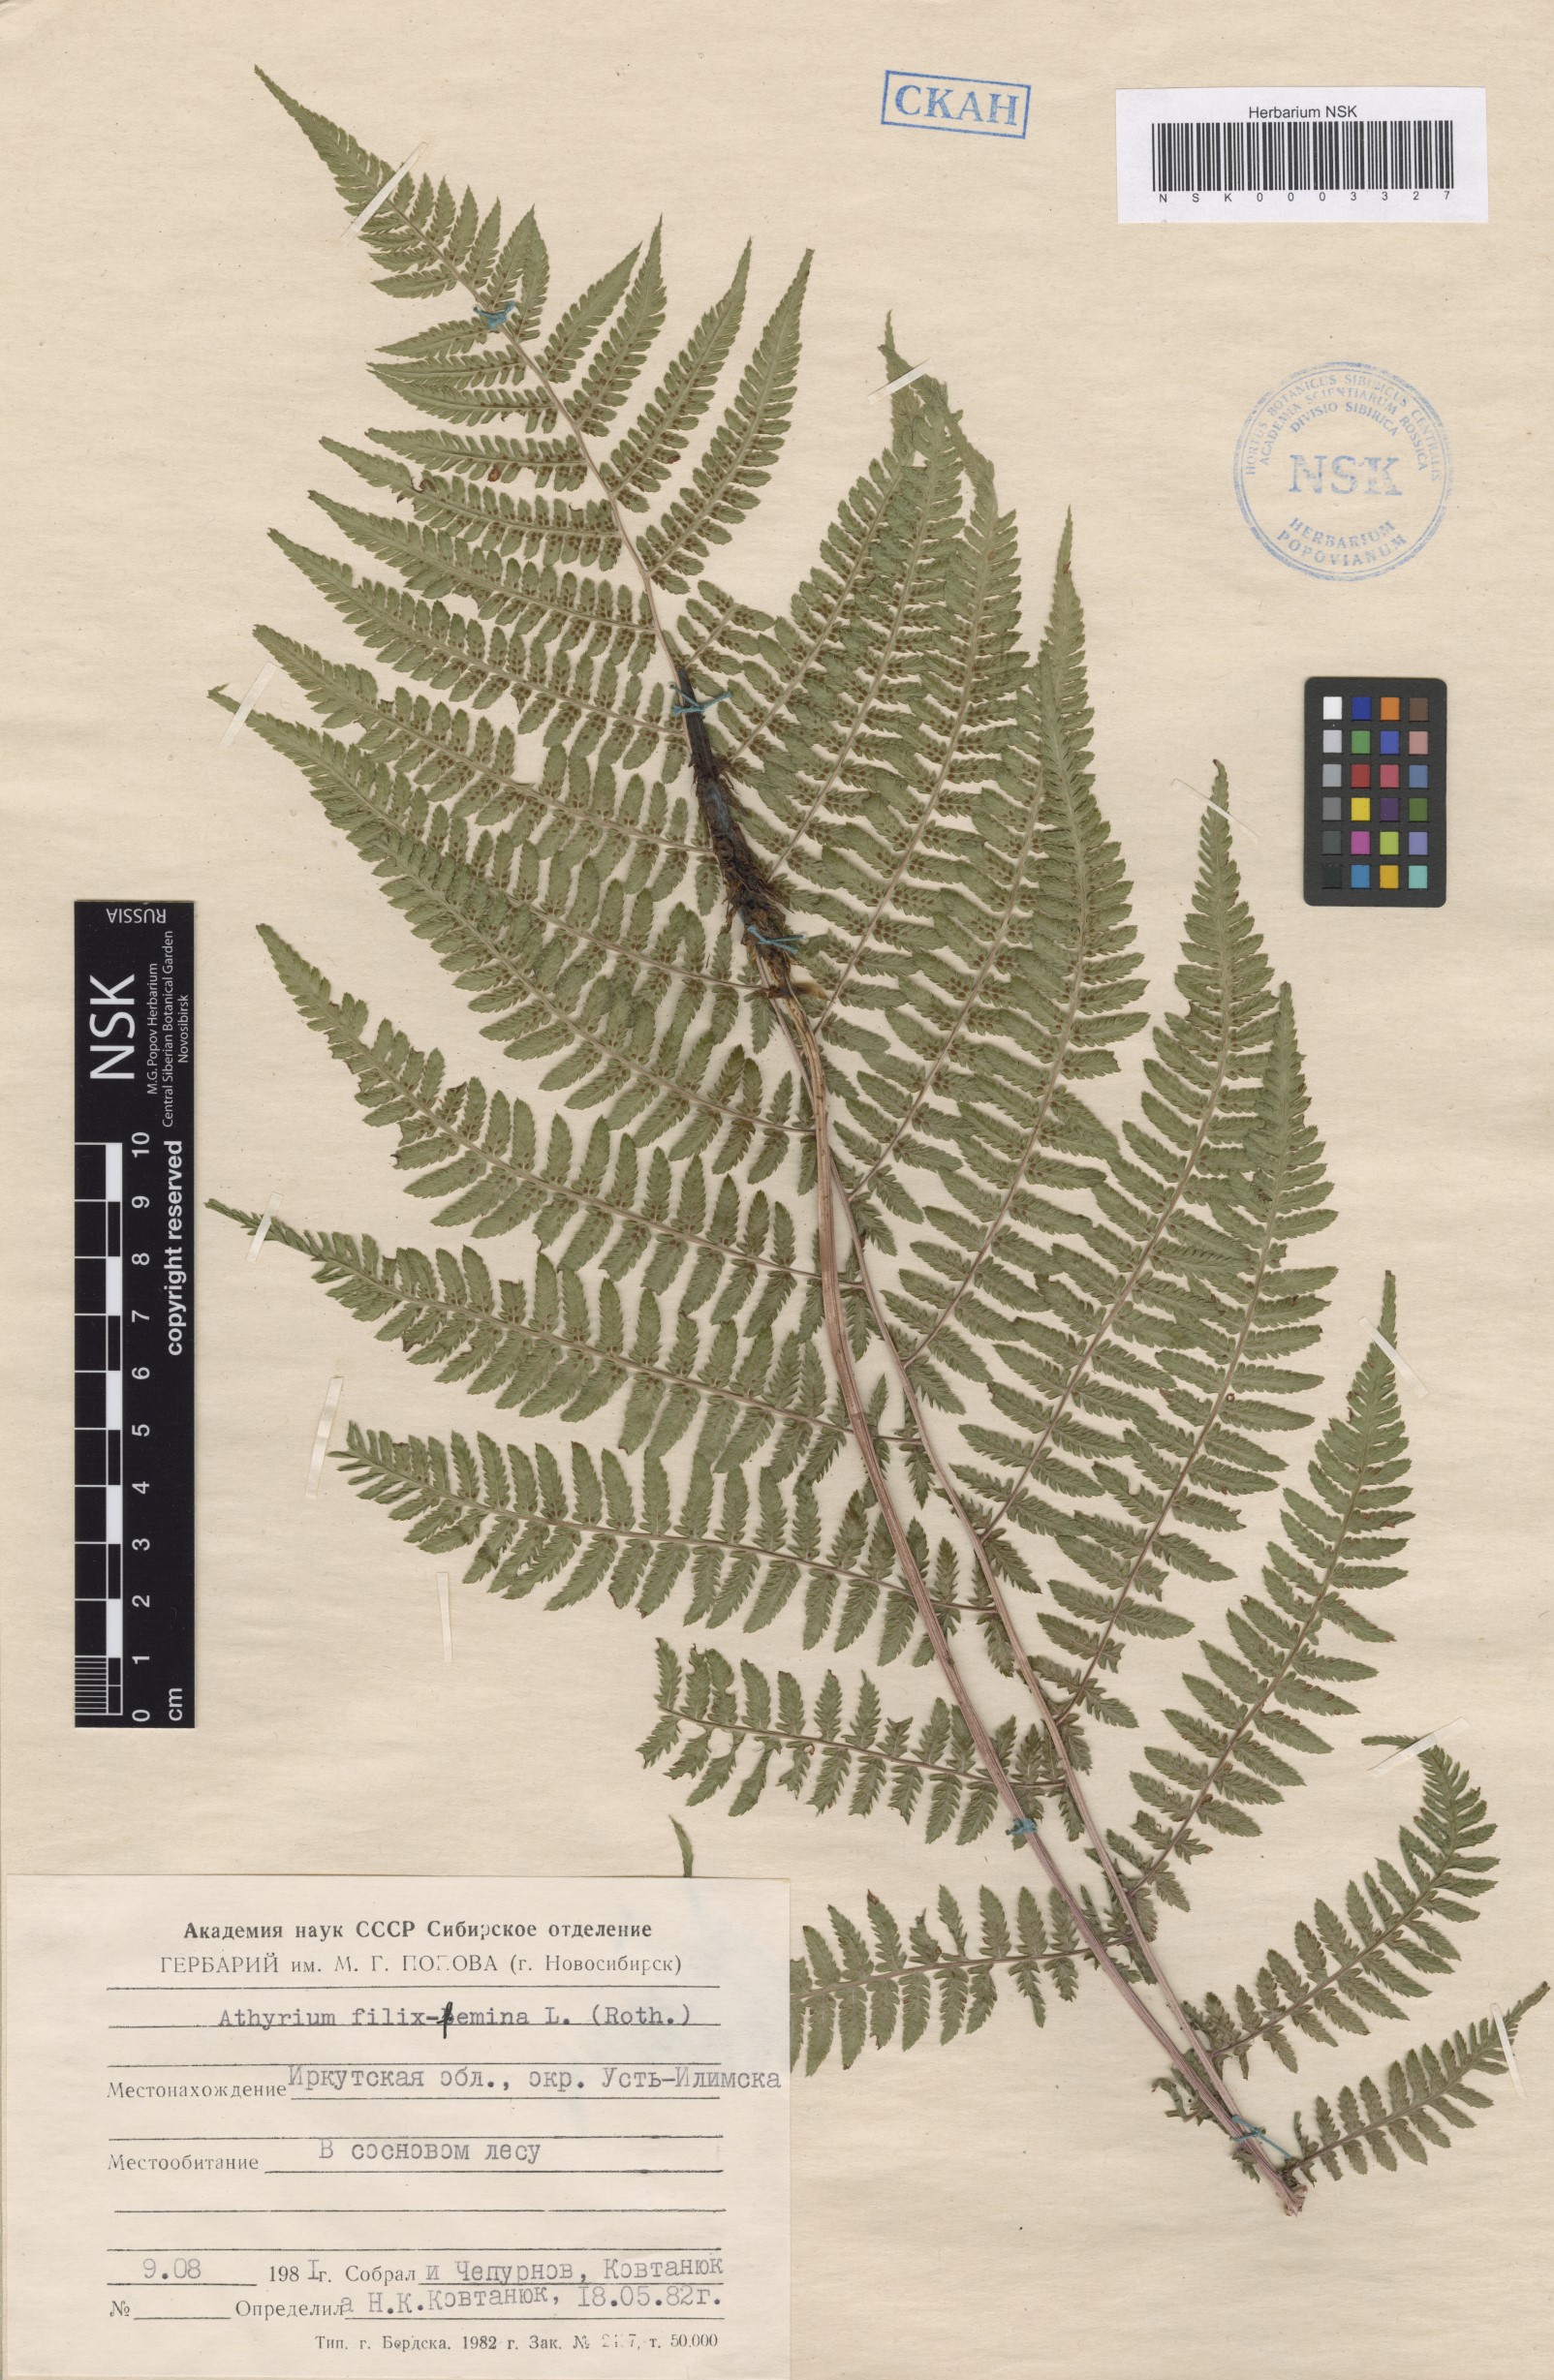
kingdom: Plantae
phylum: Tracheophyta
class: Polypodiopsida
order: Polypodiales
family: Athyriaceae
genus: Athyrium
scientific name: Athyrium filix-femina
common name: Lady fern
